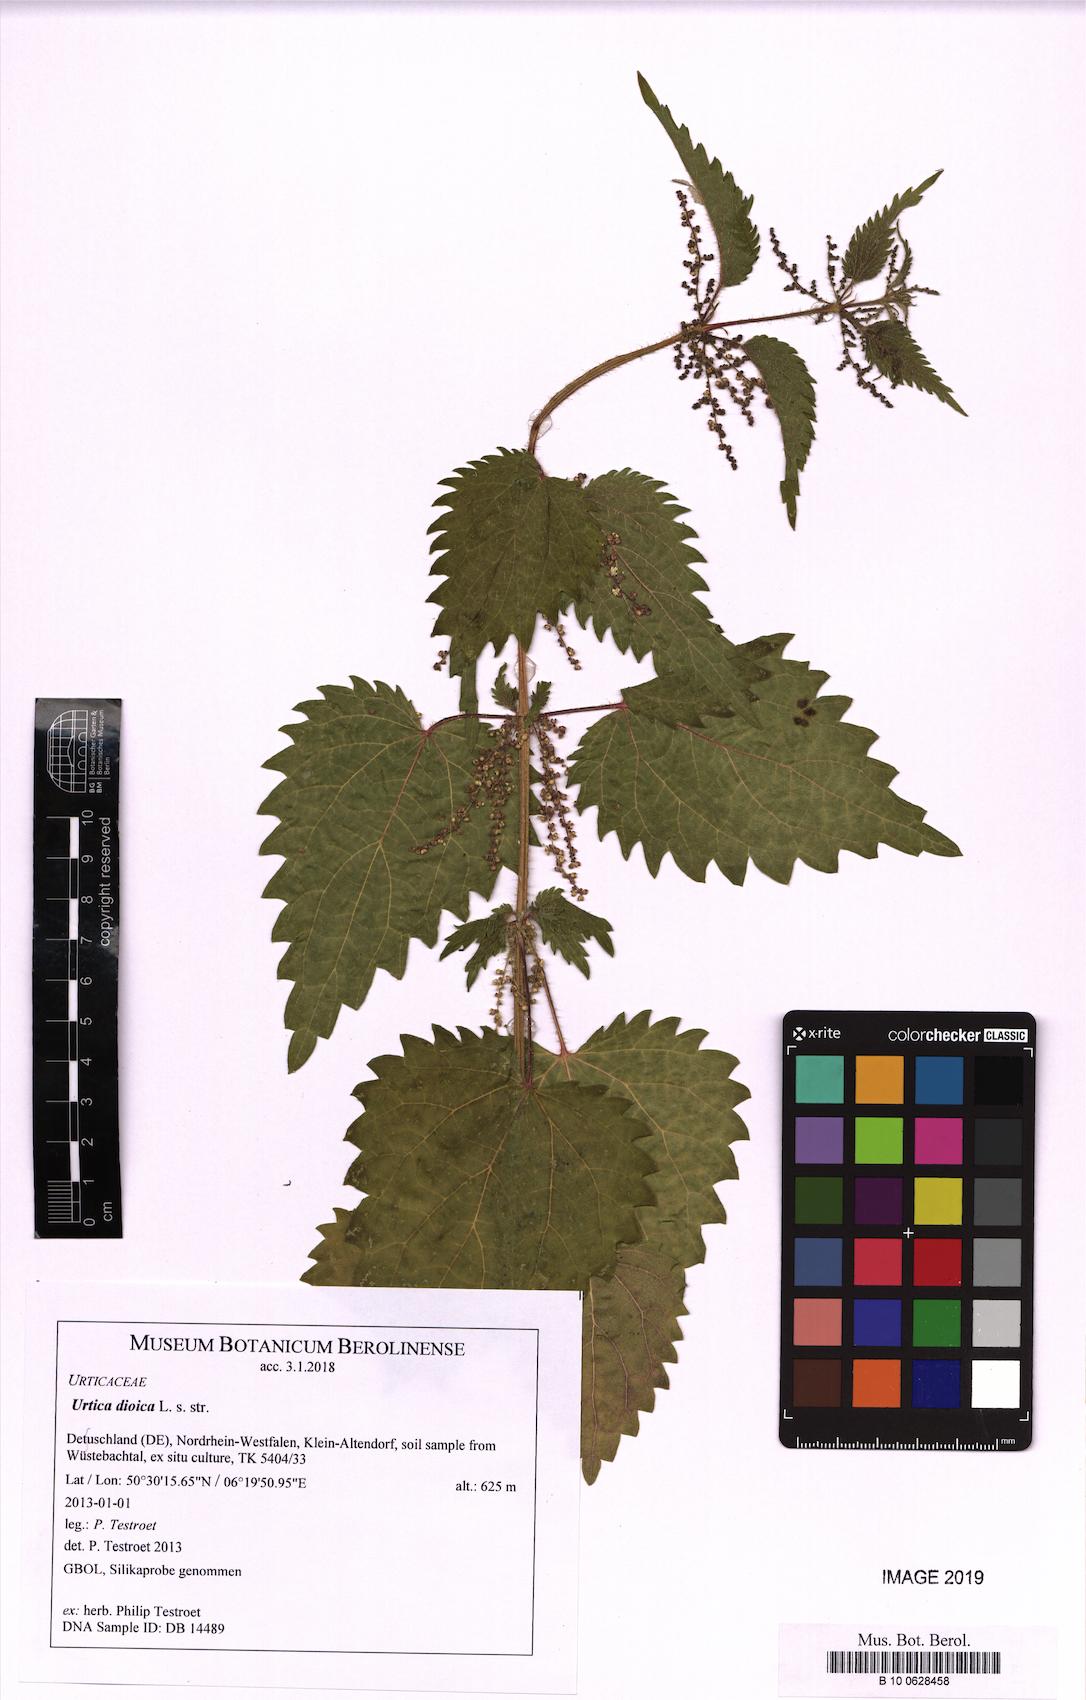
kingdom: Plantae
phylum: Tracheophyta
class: Magnoliopsida
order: Rosales
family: Urticaceae
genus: Urtica
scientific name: Urtica dioica
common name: Common nettle
